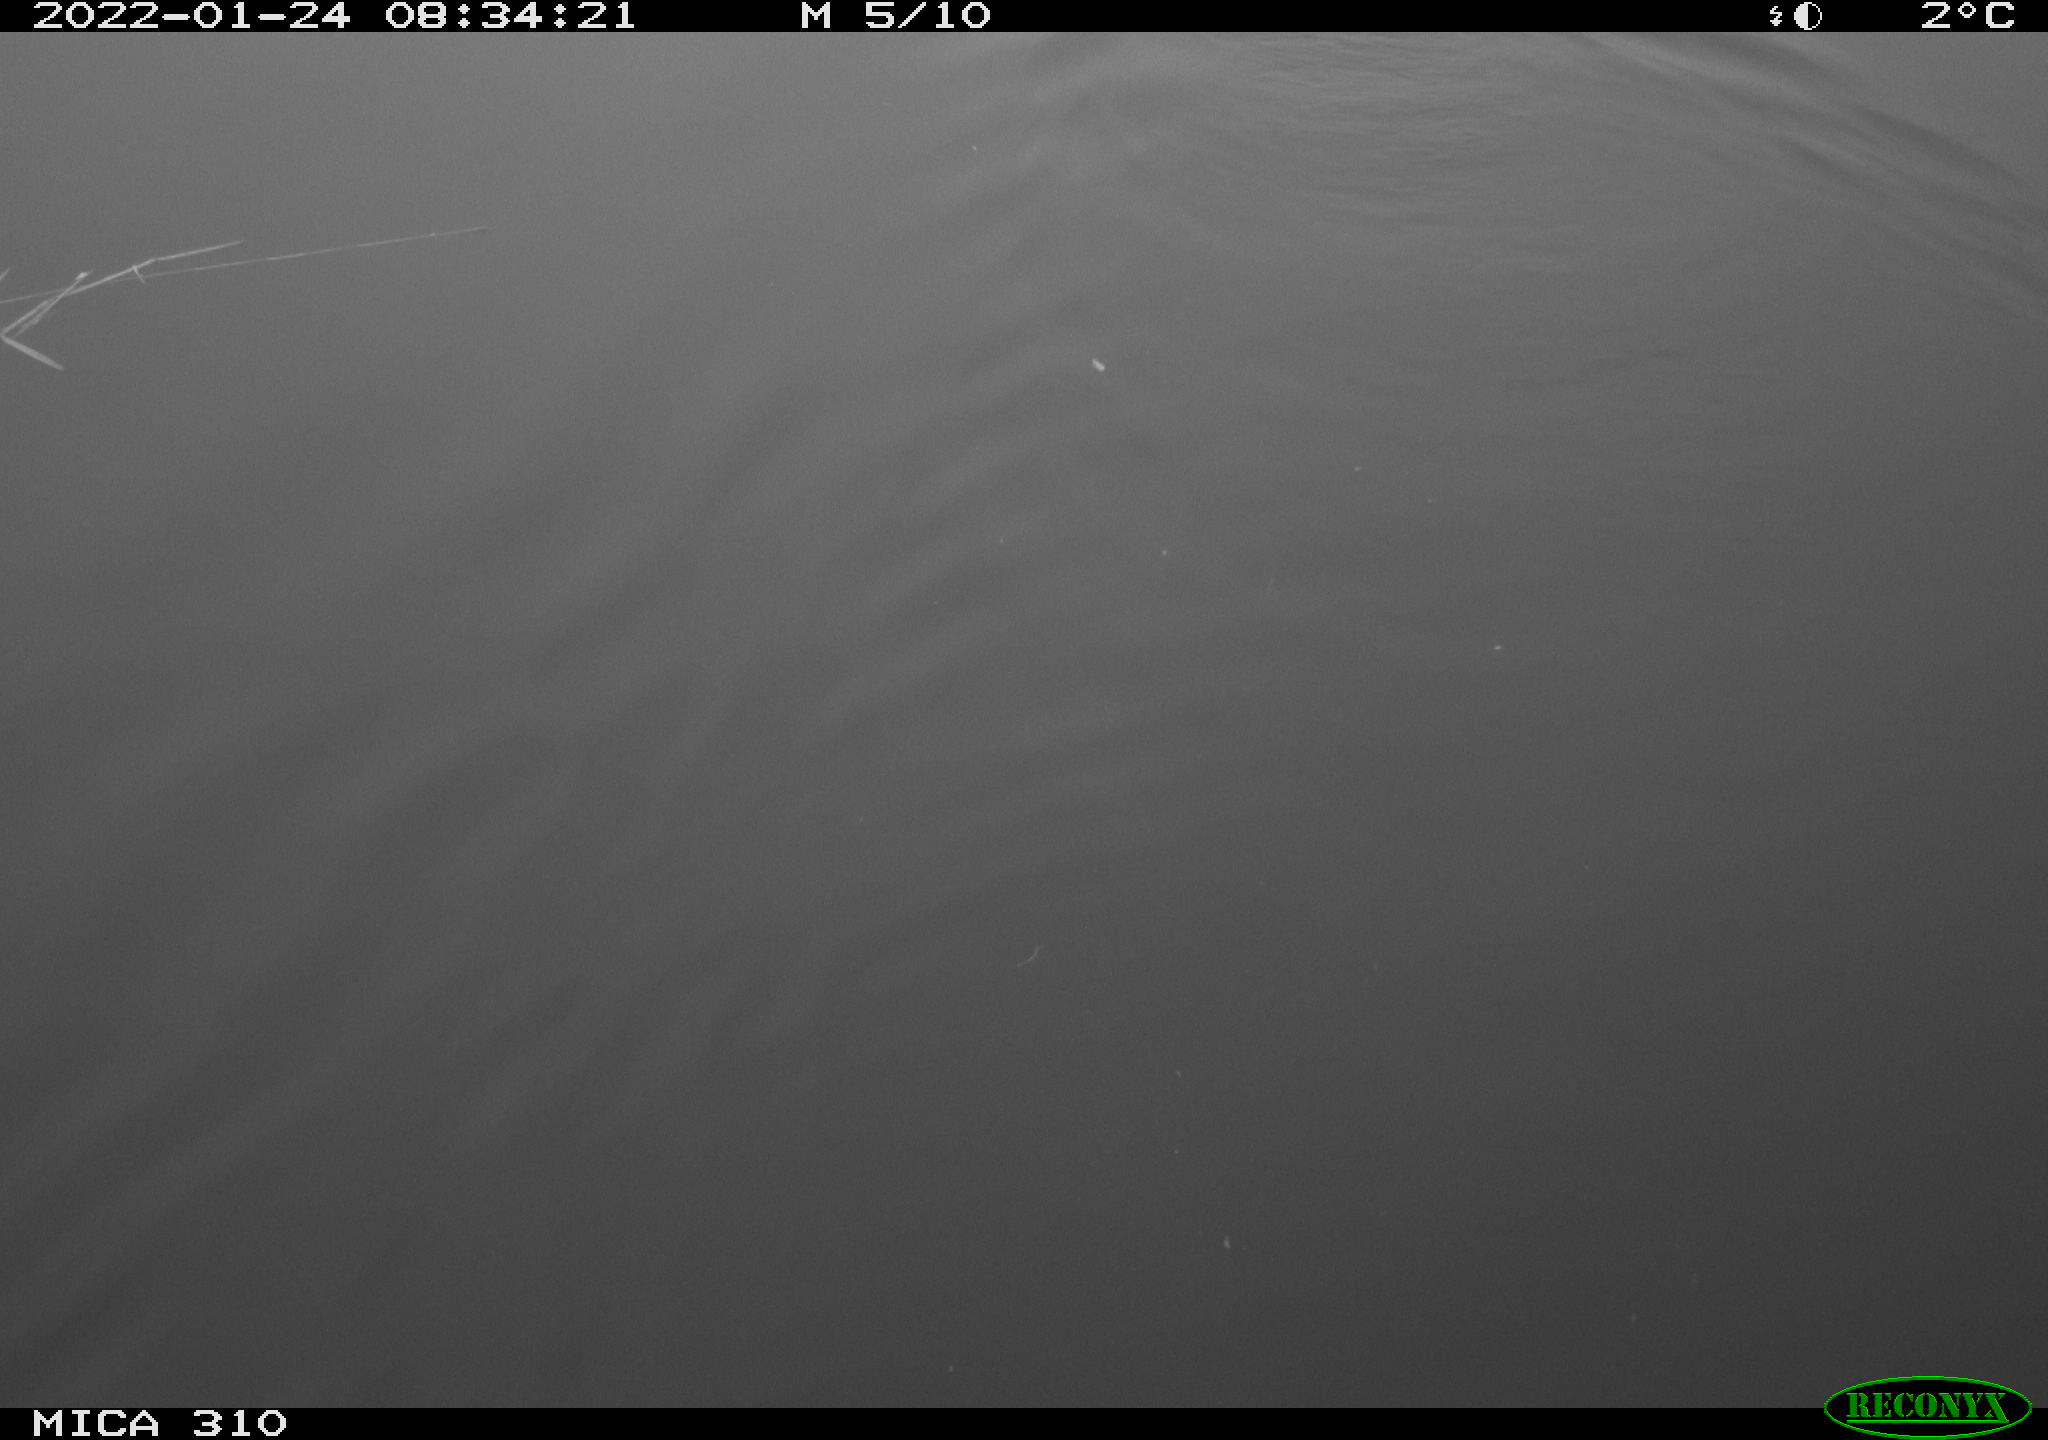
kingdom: Animalia
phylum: Chordata
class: Aves
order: Gruiformes
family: Rallidae
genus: Fulica
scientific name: Fulica atra
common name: Eurasian coot
